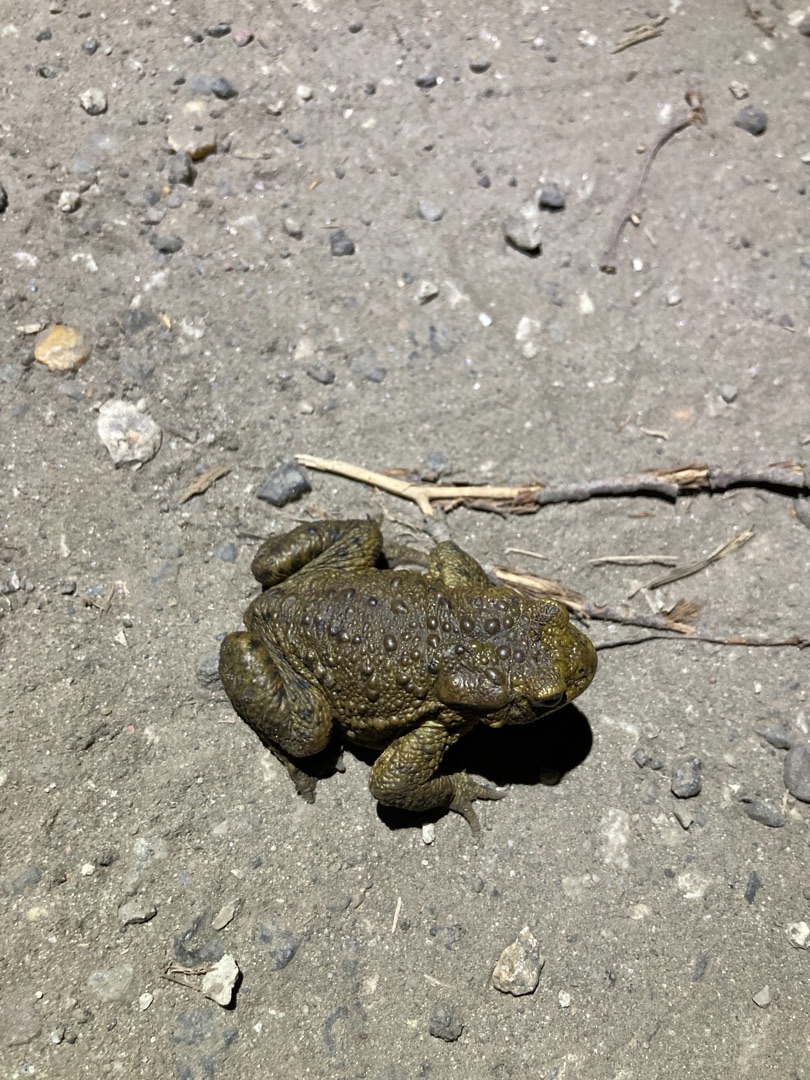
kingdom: Animalia
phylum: Chordata
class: Amphibia
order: Anura
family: Bufonidae
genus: Bufo
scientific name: Bufo bufo
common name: Skrubtudse
